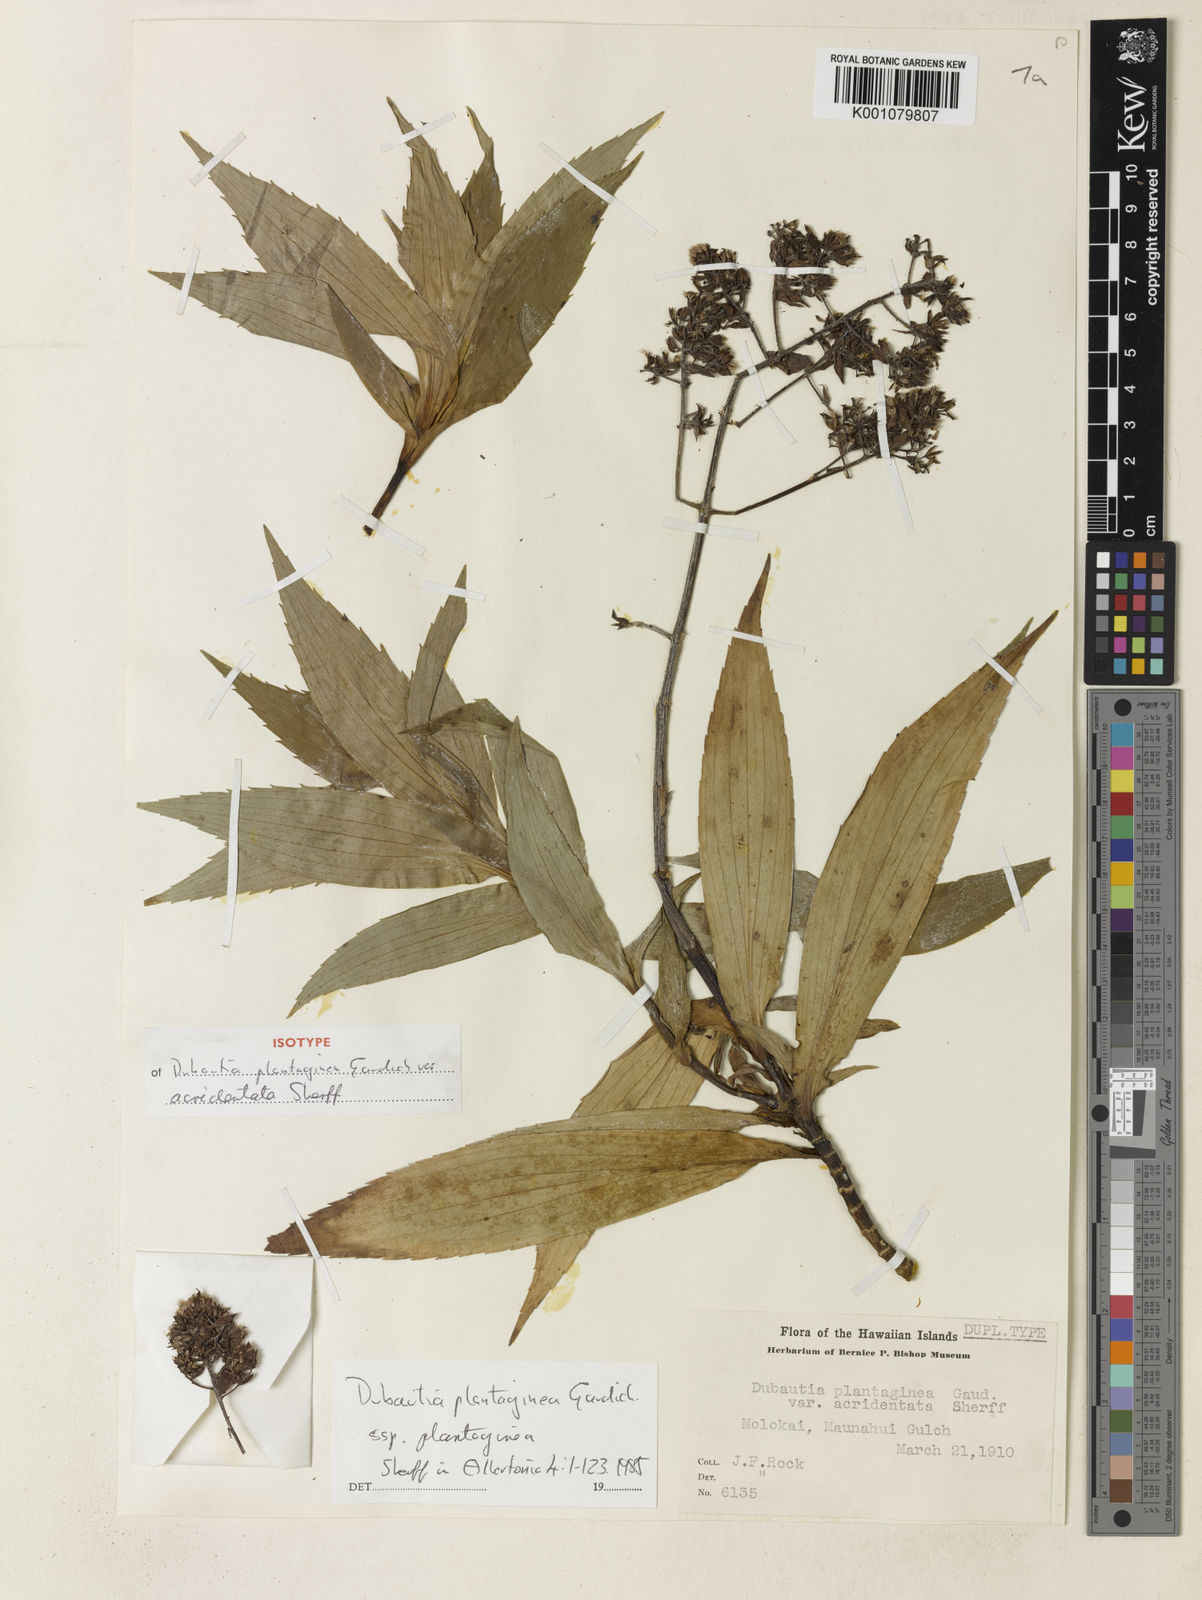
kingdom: Plantae
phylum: Tracheophyta
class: Magnoliopsida
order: Asterales
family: Asteraceae
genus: Dubautia
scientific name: Dubautia plantaginea
